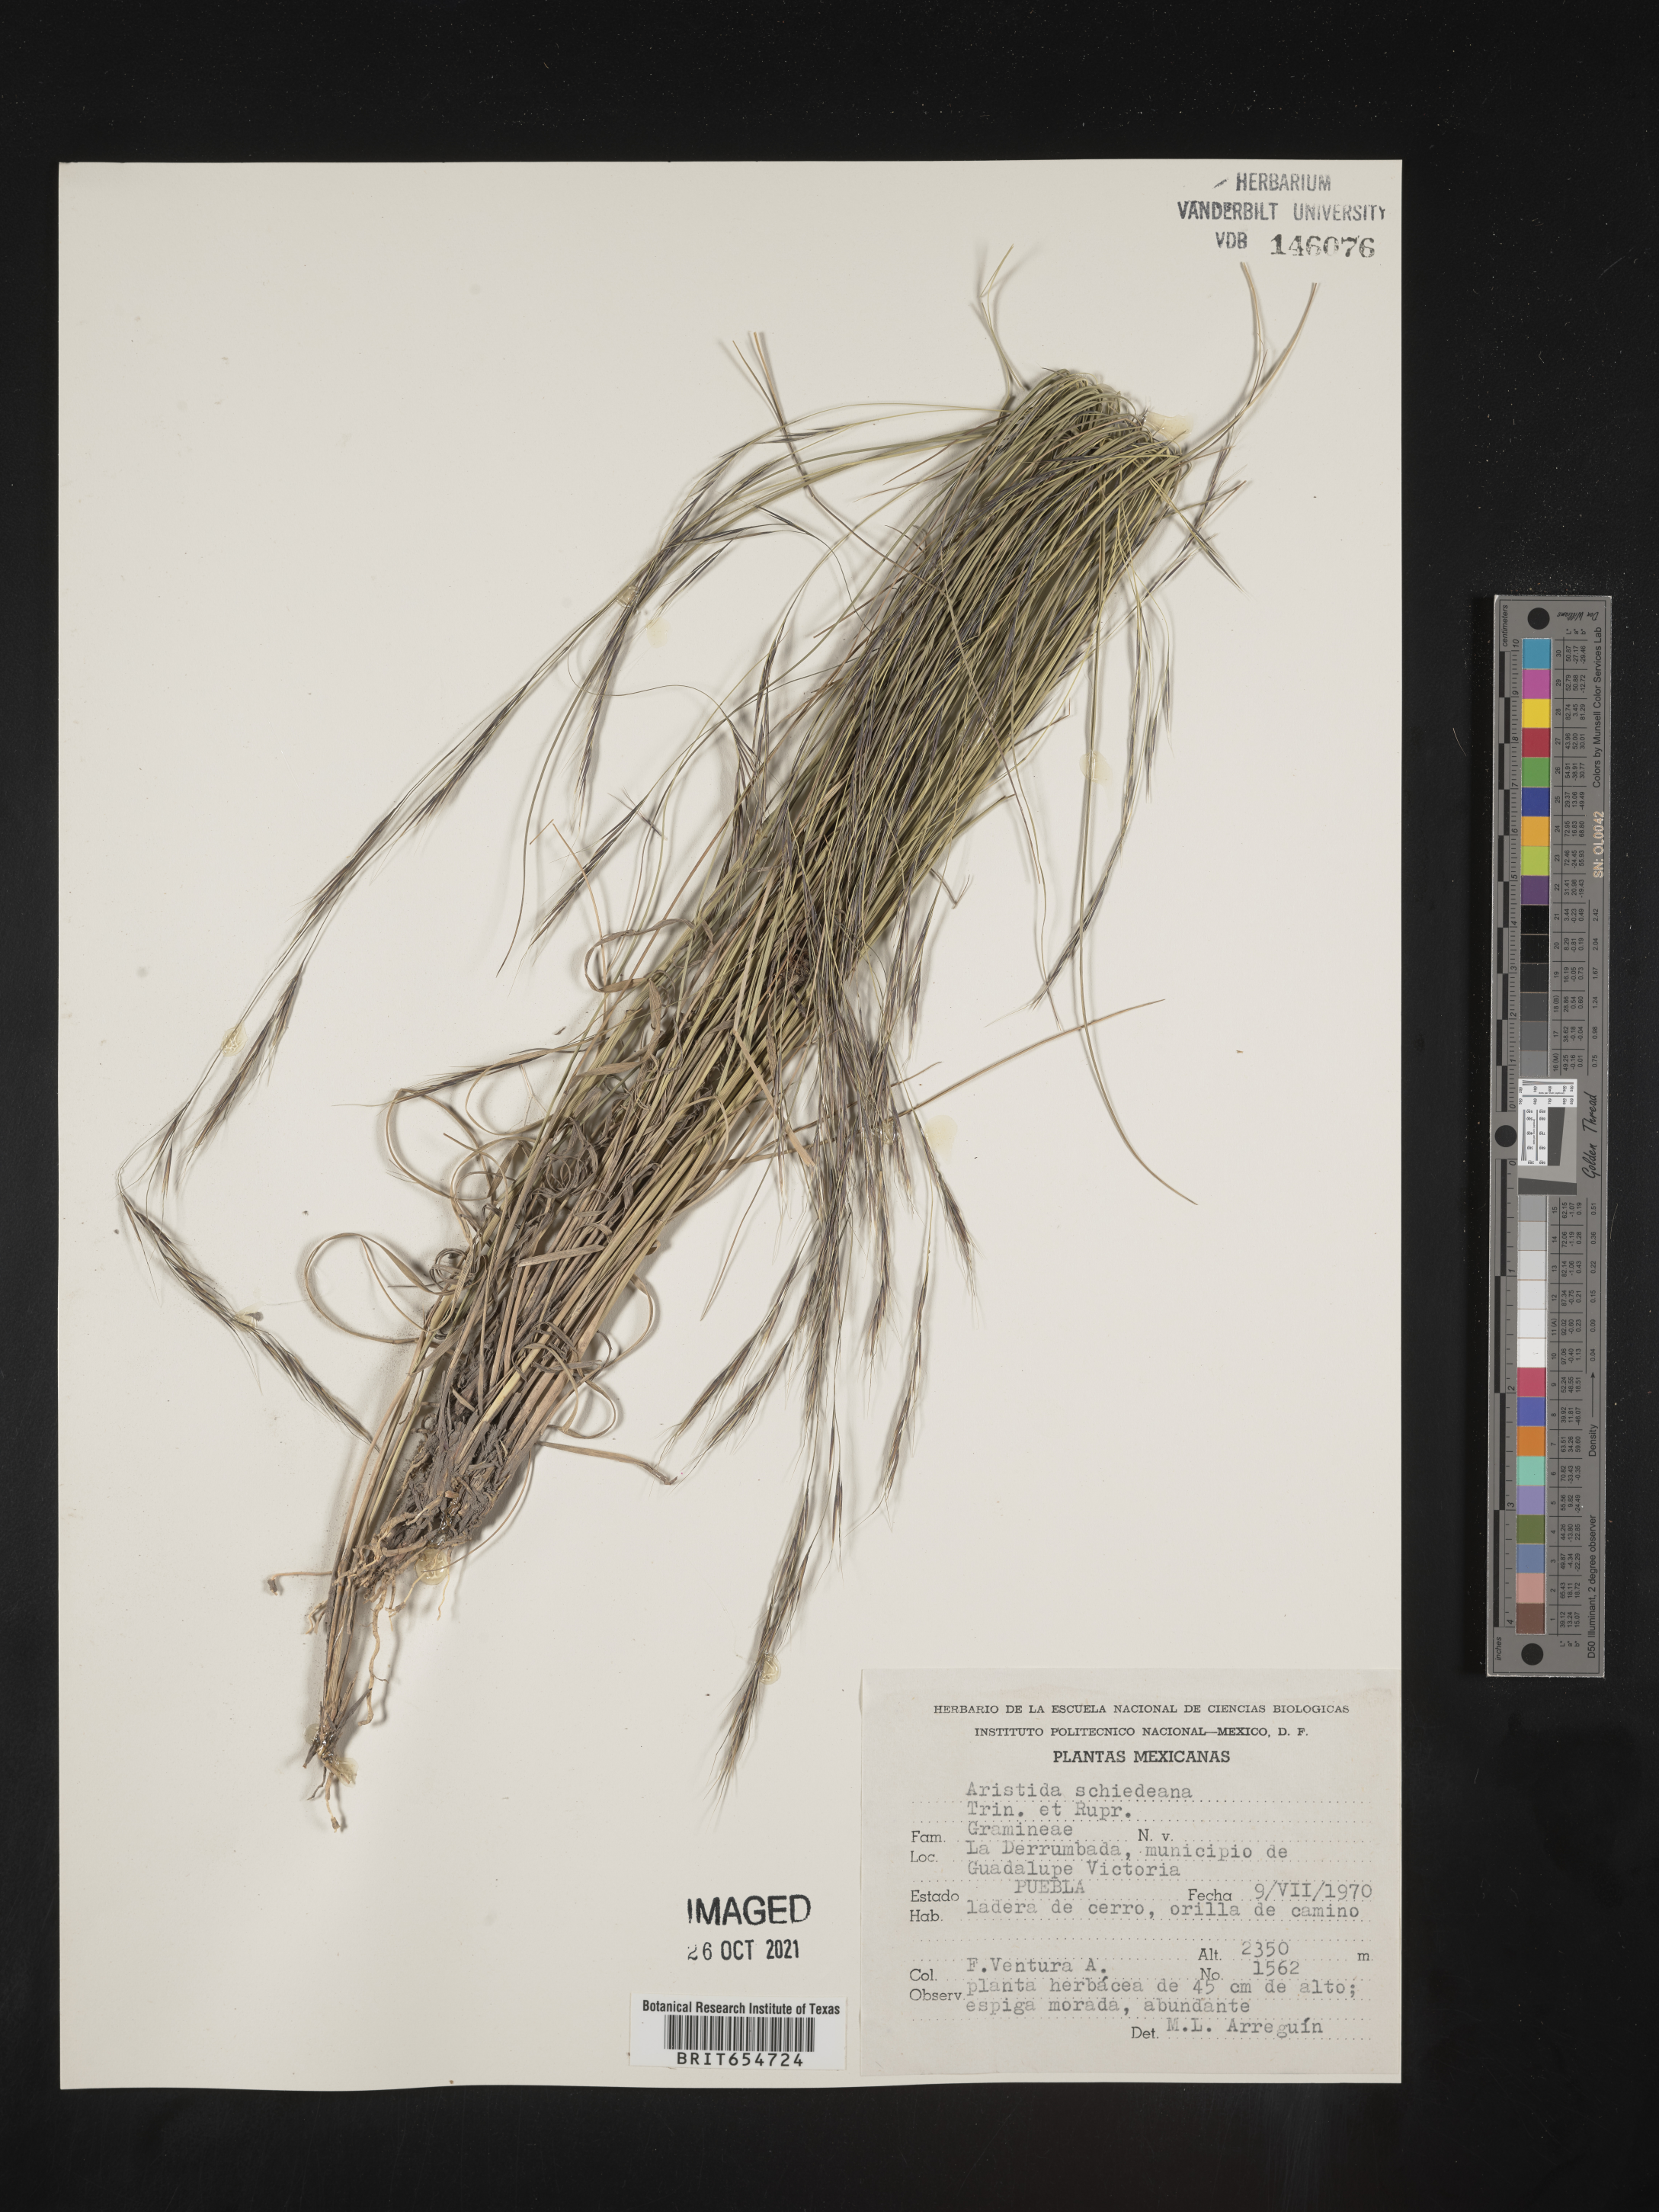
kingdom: Plantae
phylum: Tracheophyta
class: Liliopsida
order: Poales
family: Poaceae
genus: Aristida
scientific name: Aristida
